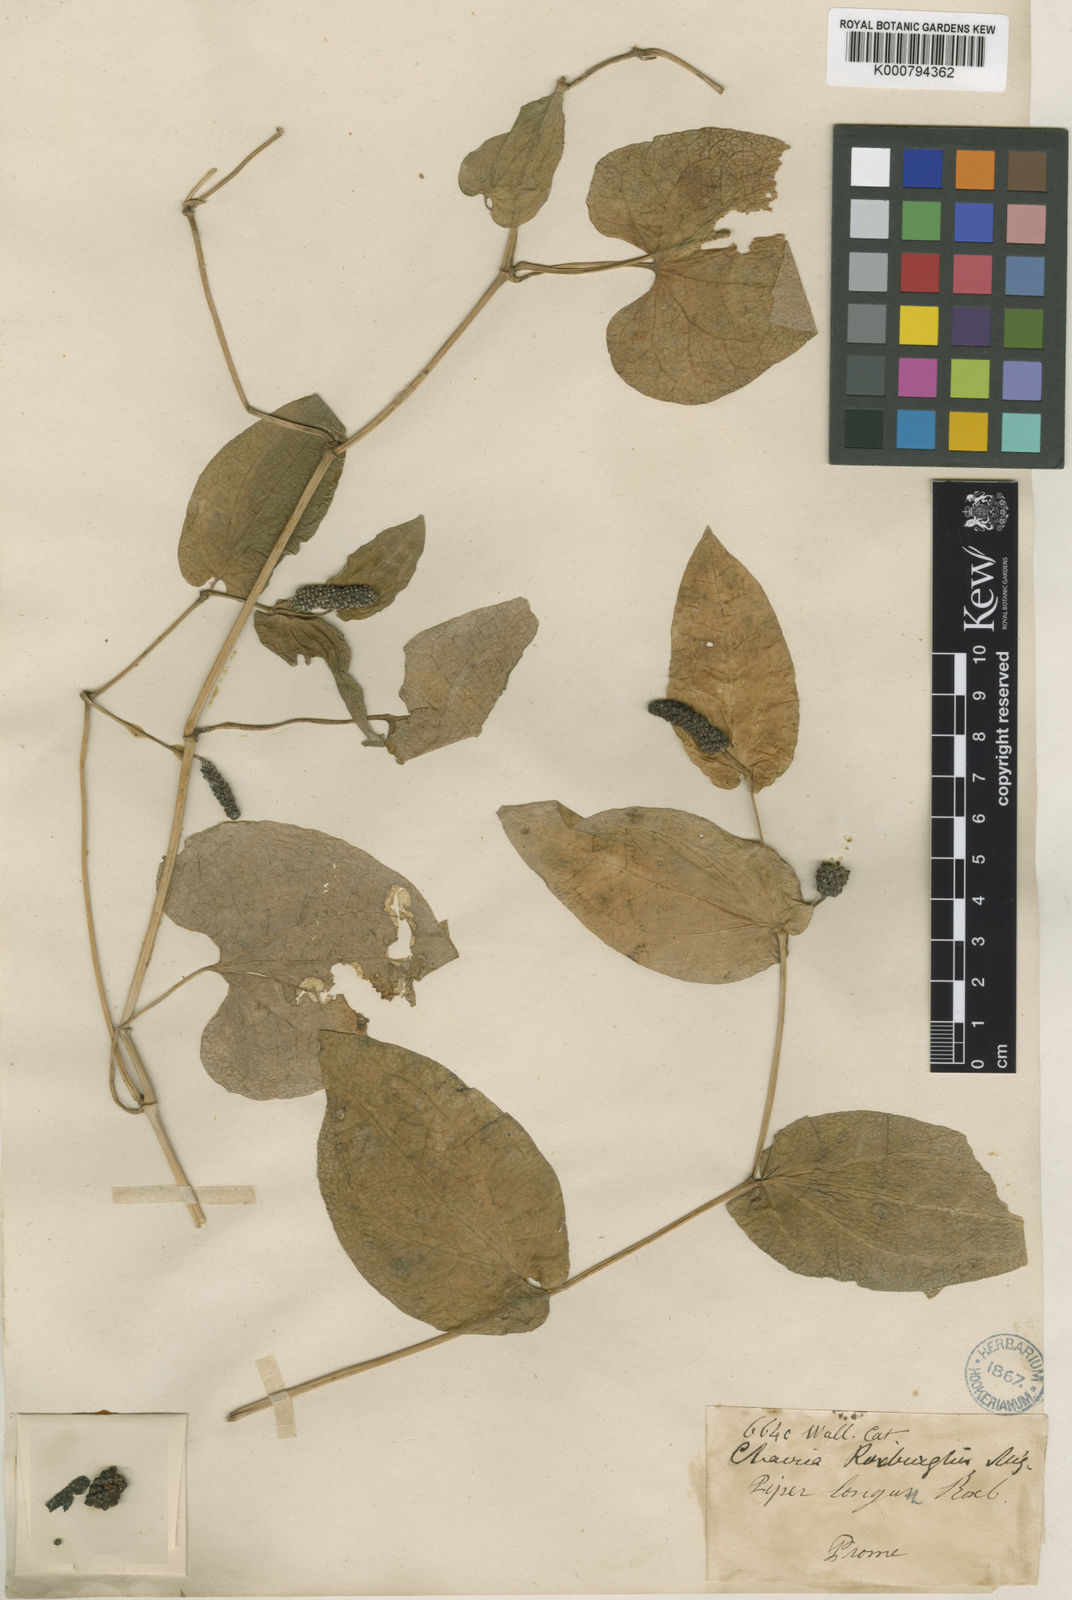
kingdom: Plantae
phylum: Tracheophyta
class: Magnoliopsida
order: Piperales
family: Piperaceae
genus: Piper
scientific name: Piper longum
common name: Long pepper
